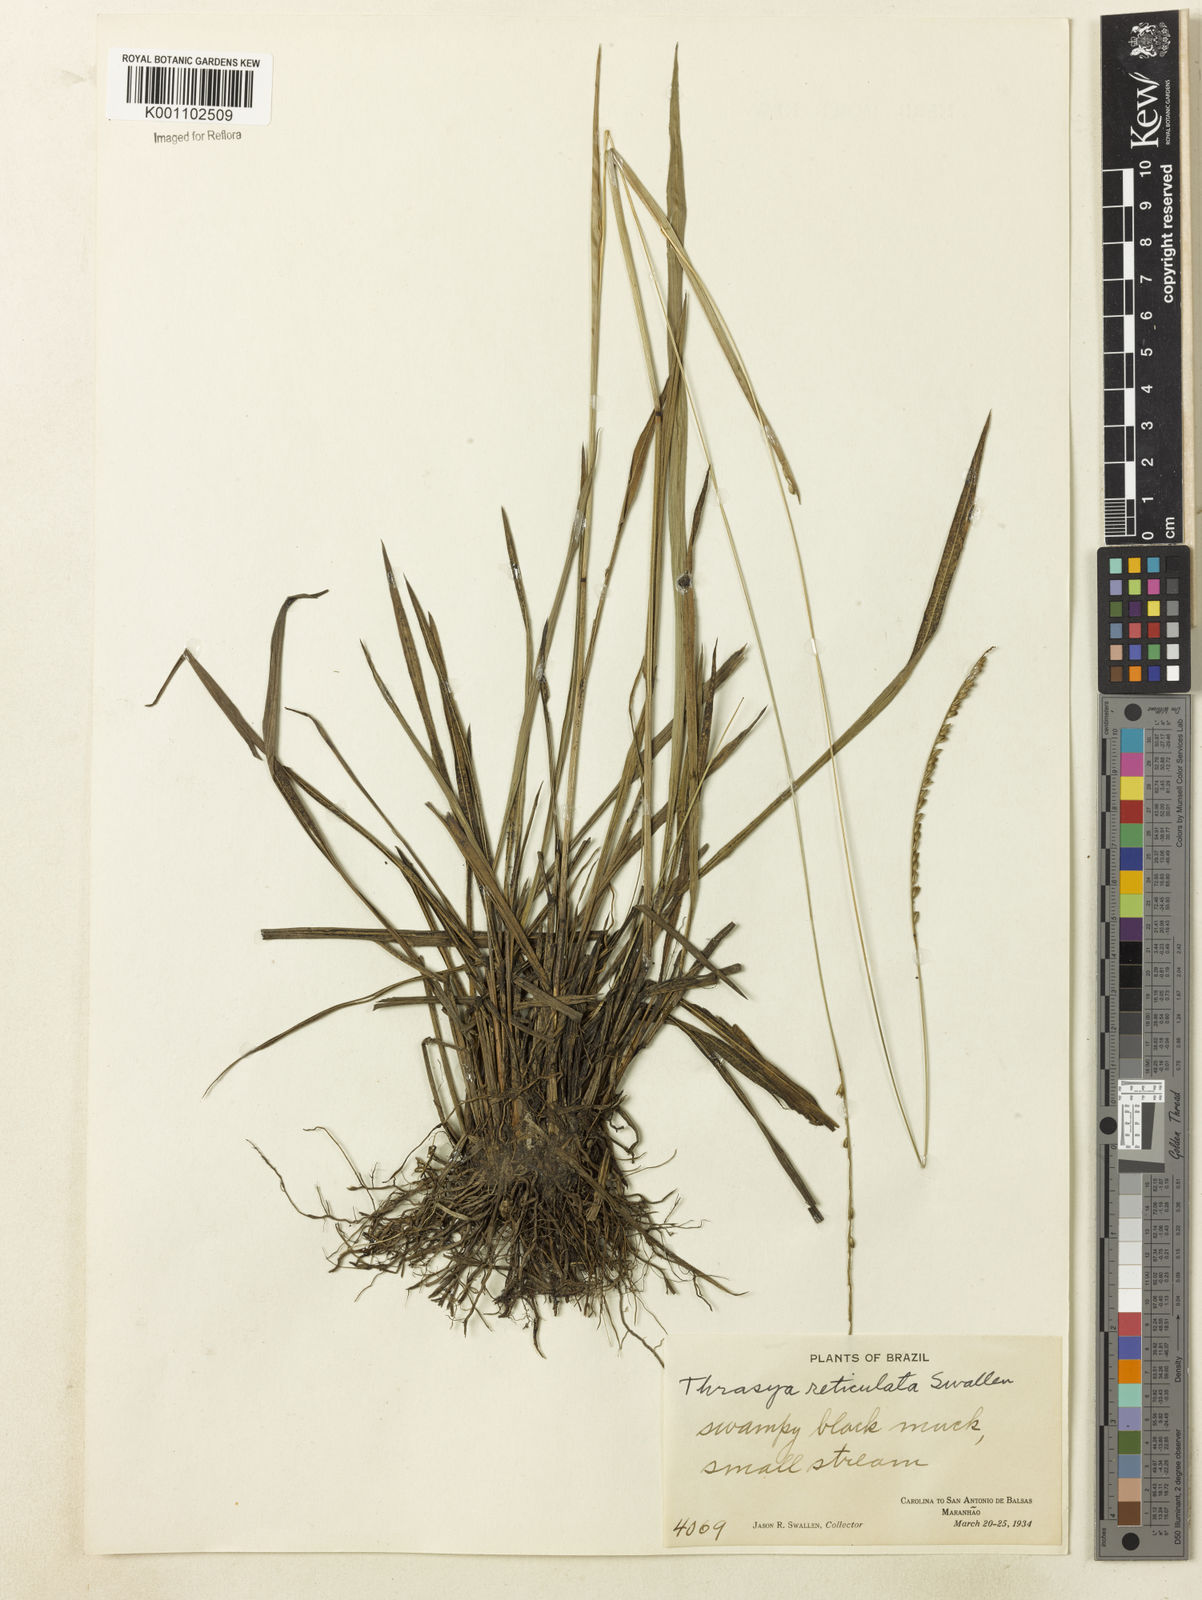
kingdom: Plantae
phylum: Tracheophyta
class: Liliopsida
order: Poales
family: Poaceae
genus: Paspalum
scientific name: Paspalum cinerascens
